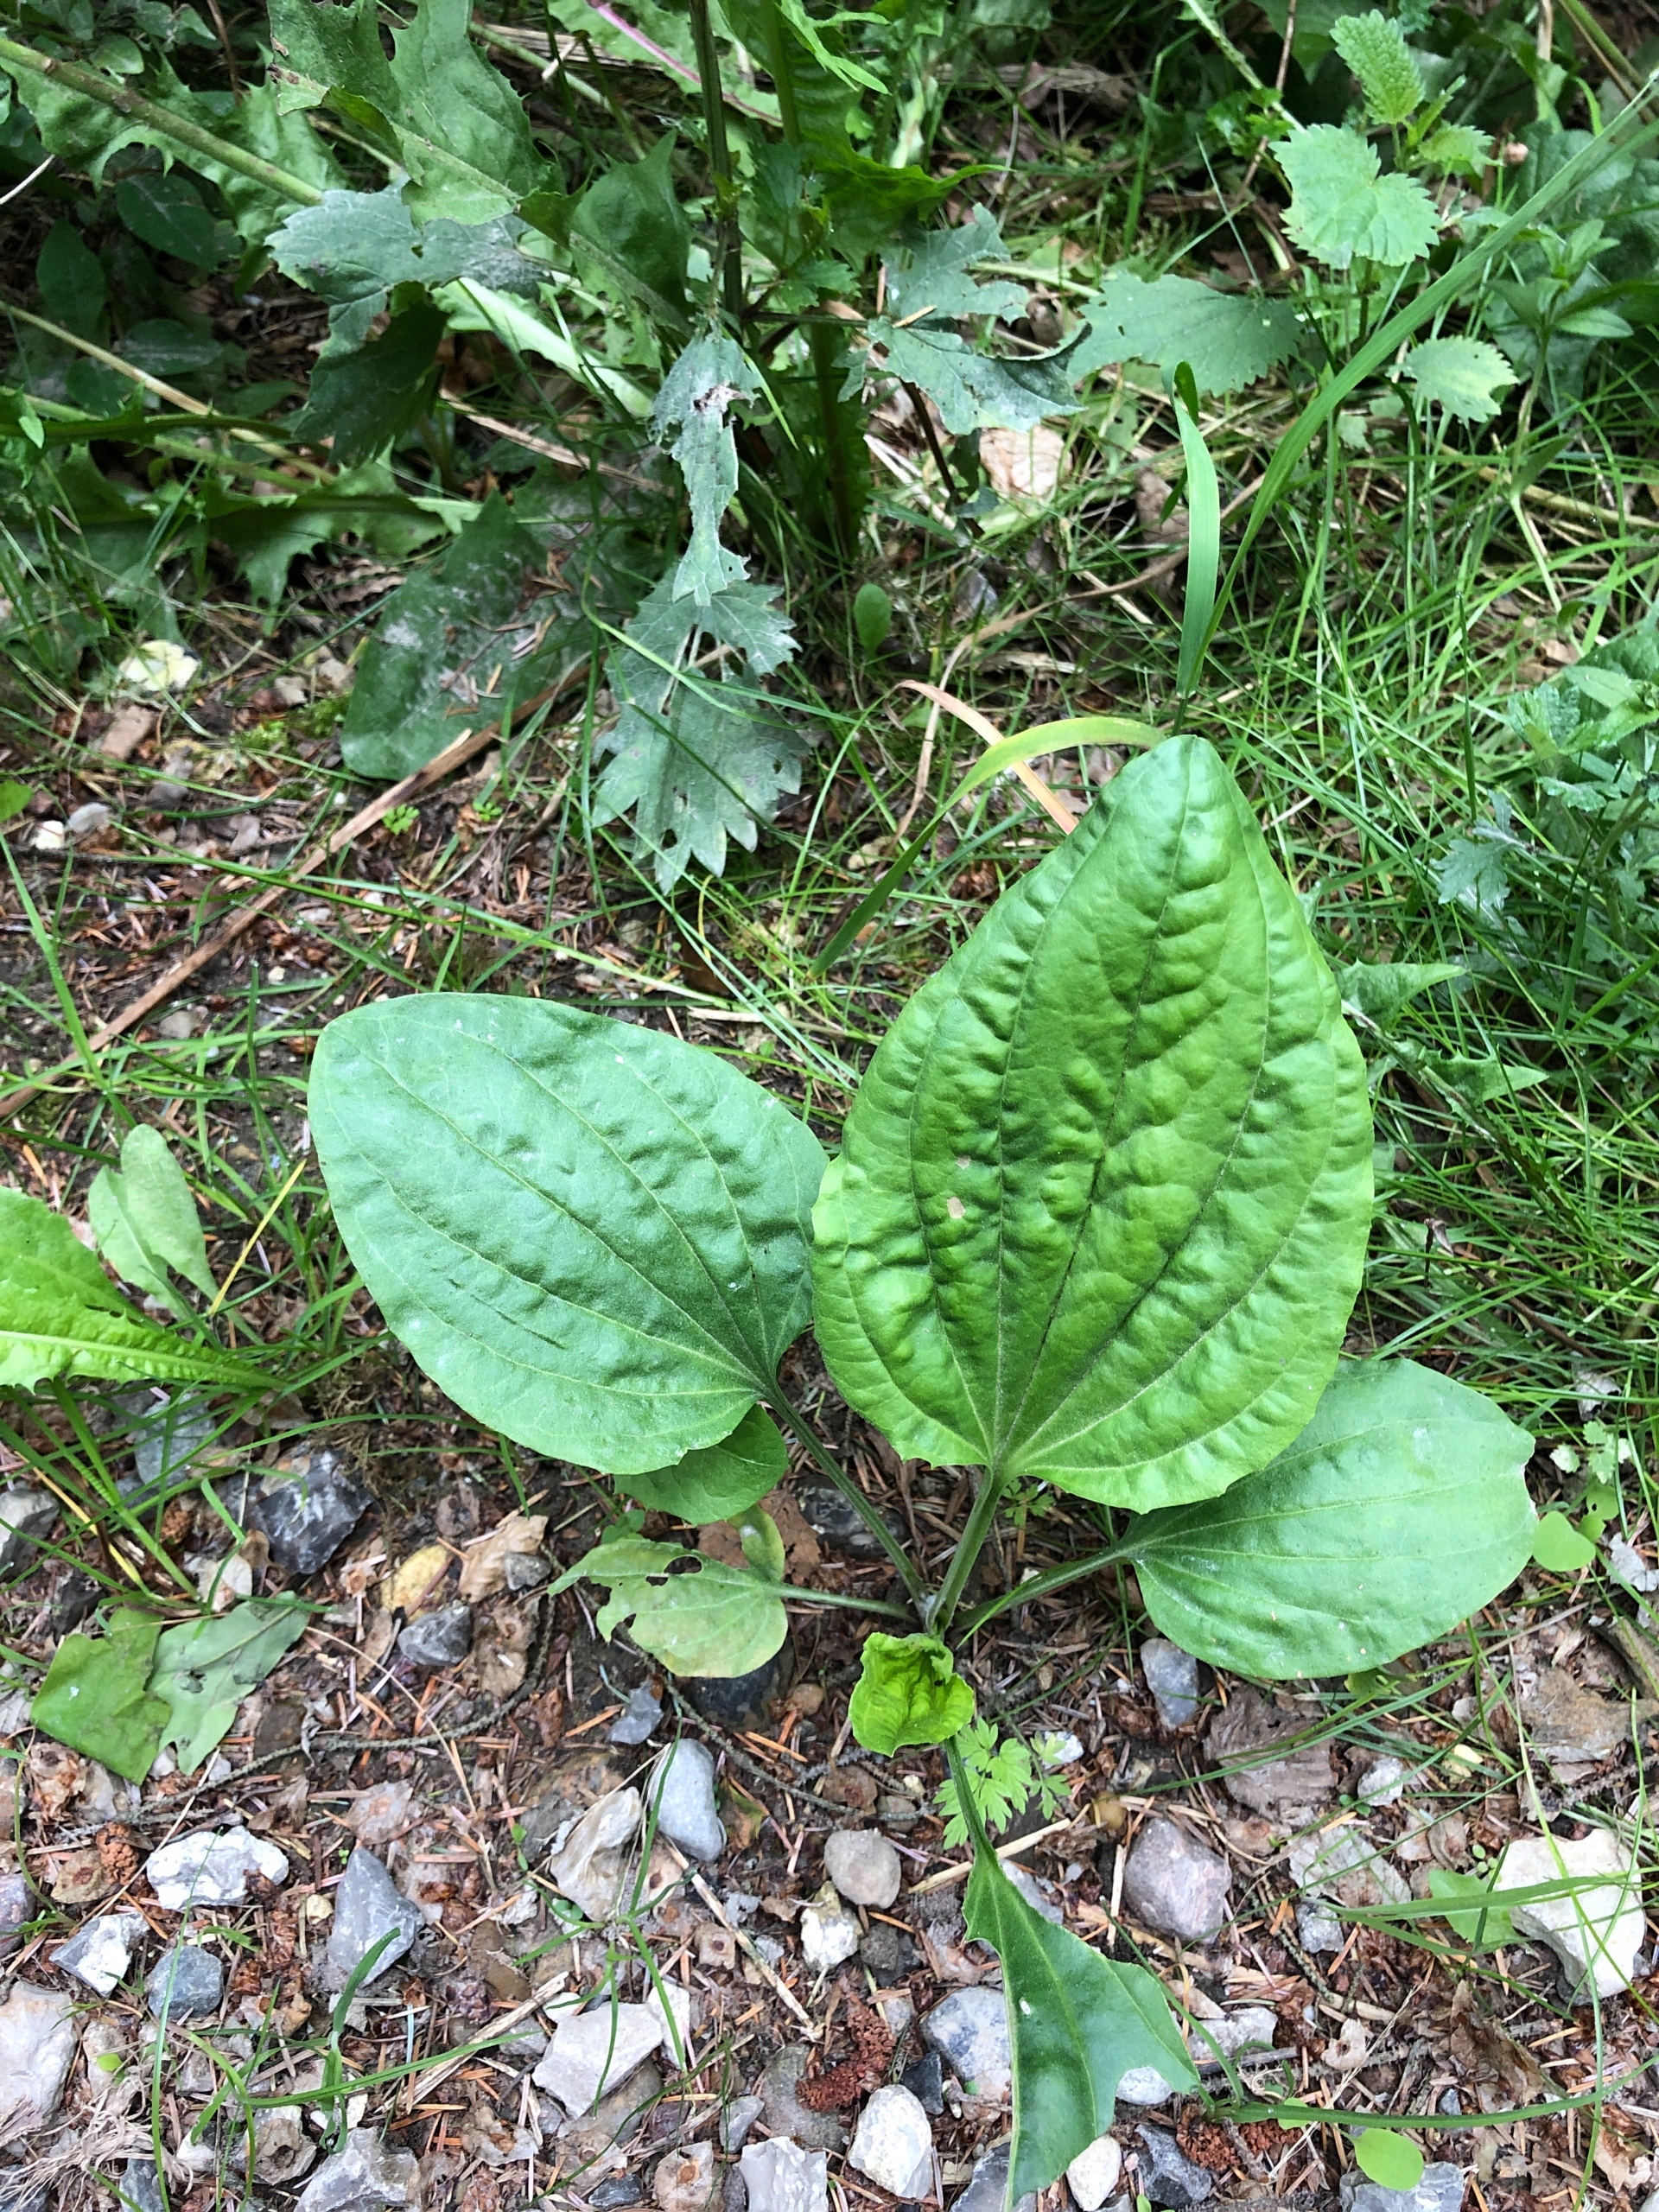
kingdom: Plantae
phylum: Tracheophyta
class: Magnoliopsida
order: Lamiales
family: Plantaginaceae
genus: Plantago
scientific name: Plantago major
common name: Glat vejbred
